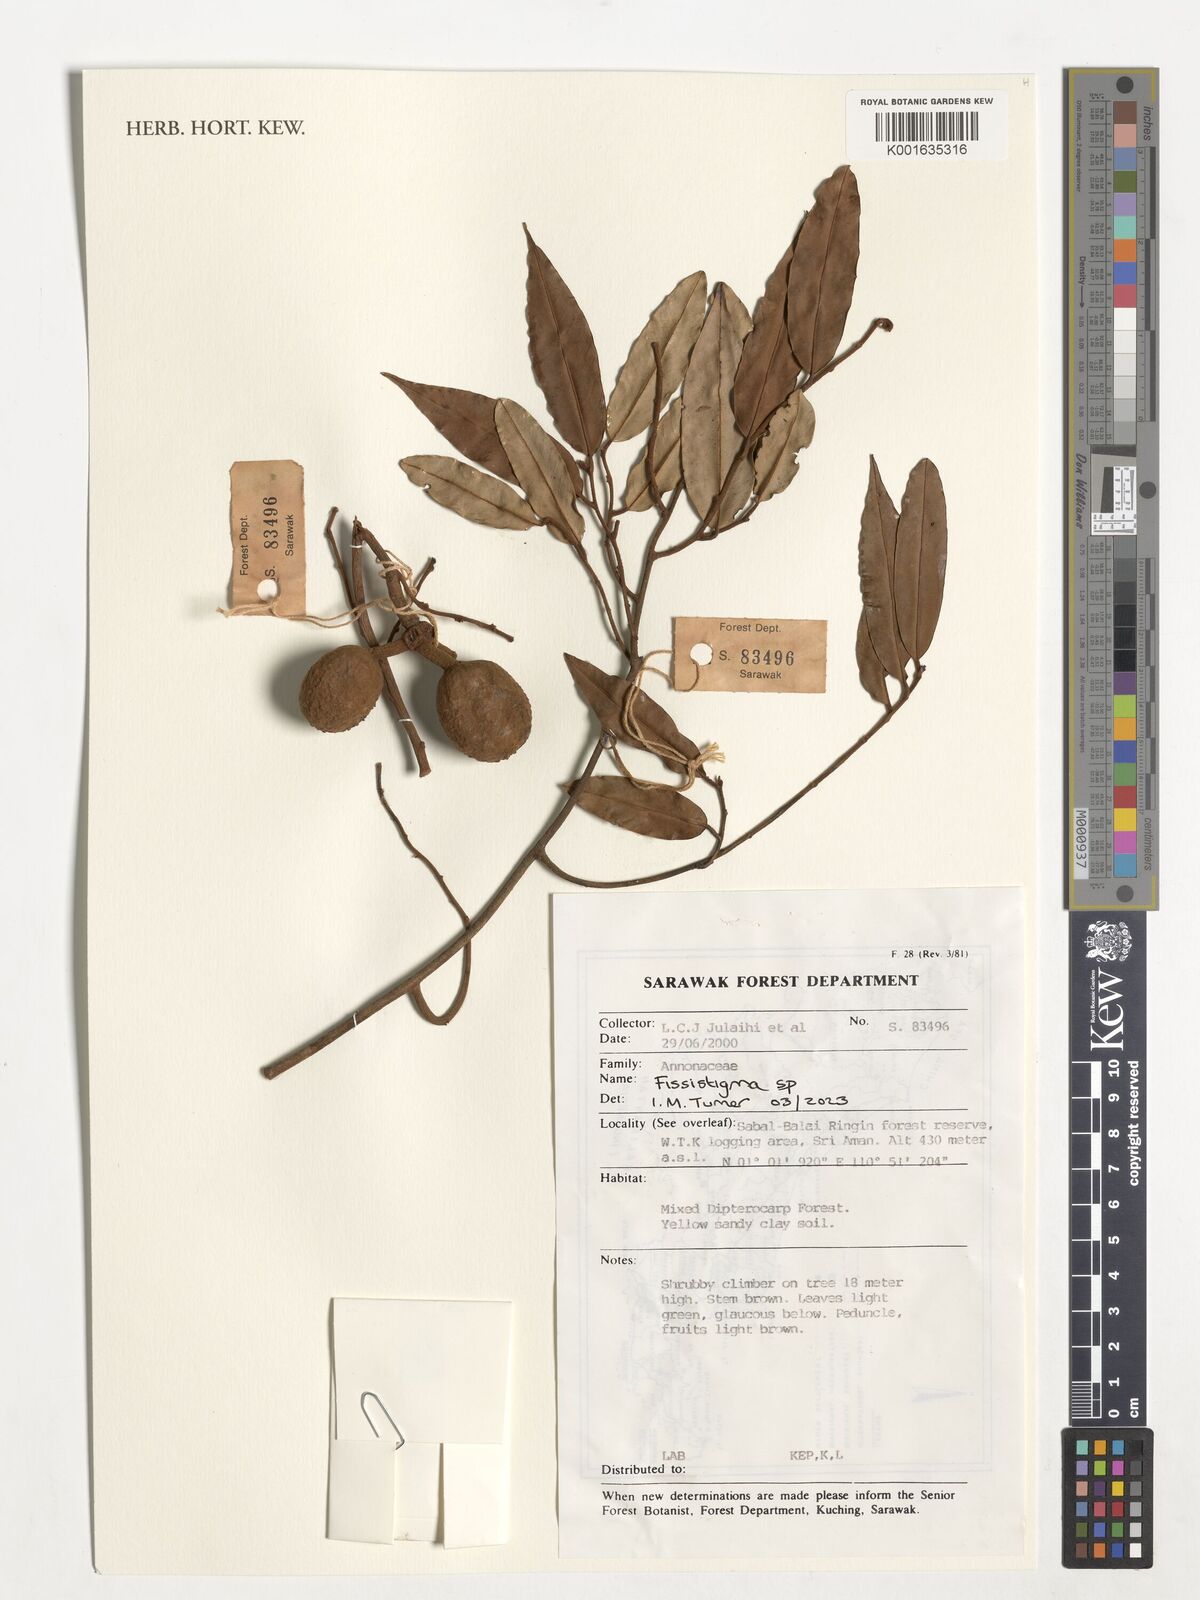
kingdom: Plantae
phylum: Tracheophyta
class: Magnoliopsida
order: Magnoliales
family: Annonaceae
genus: Fissistigma
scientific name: Fissistigma
